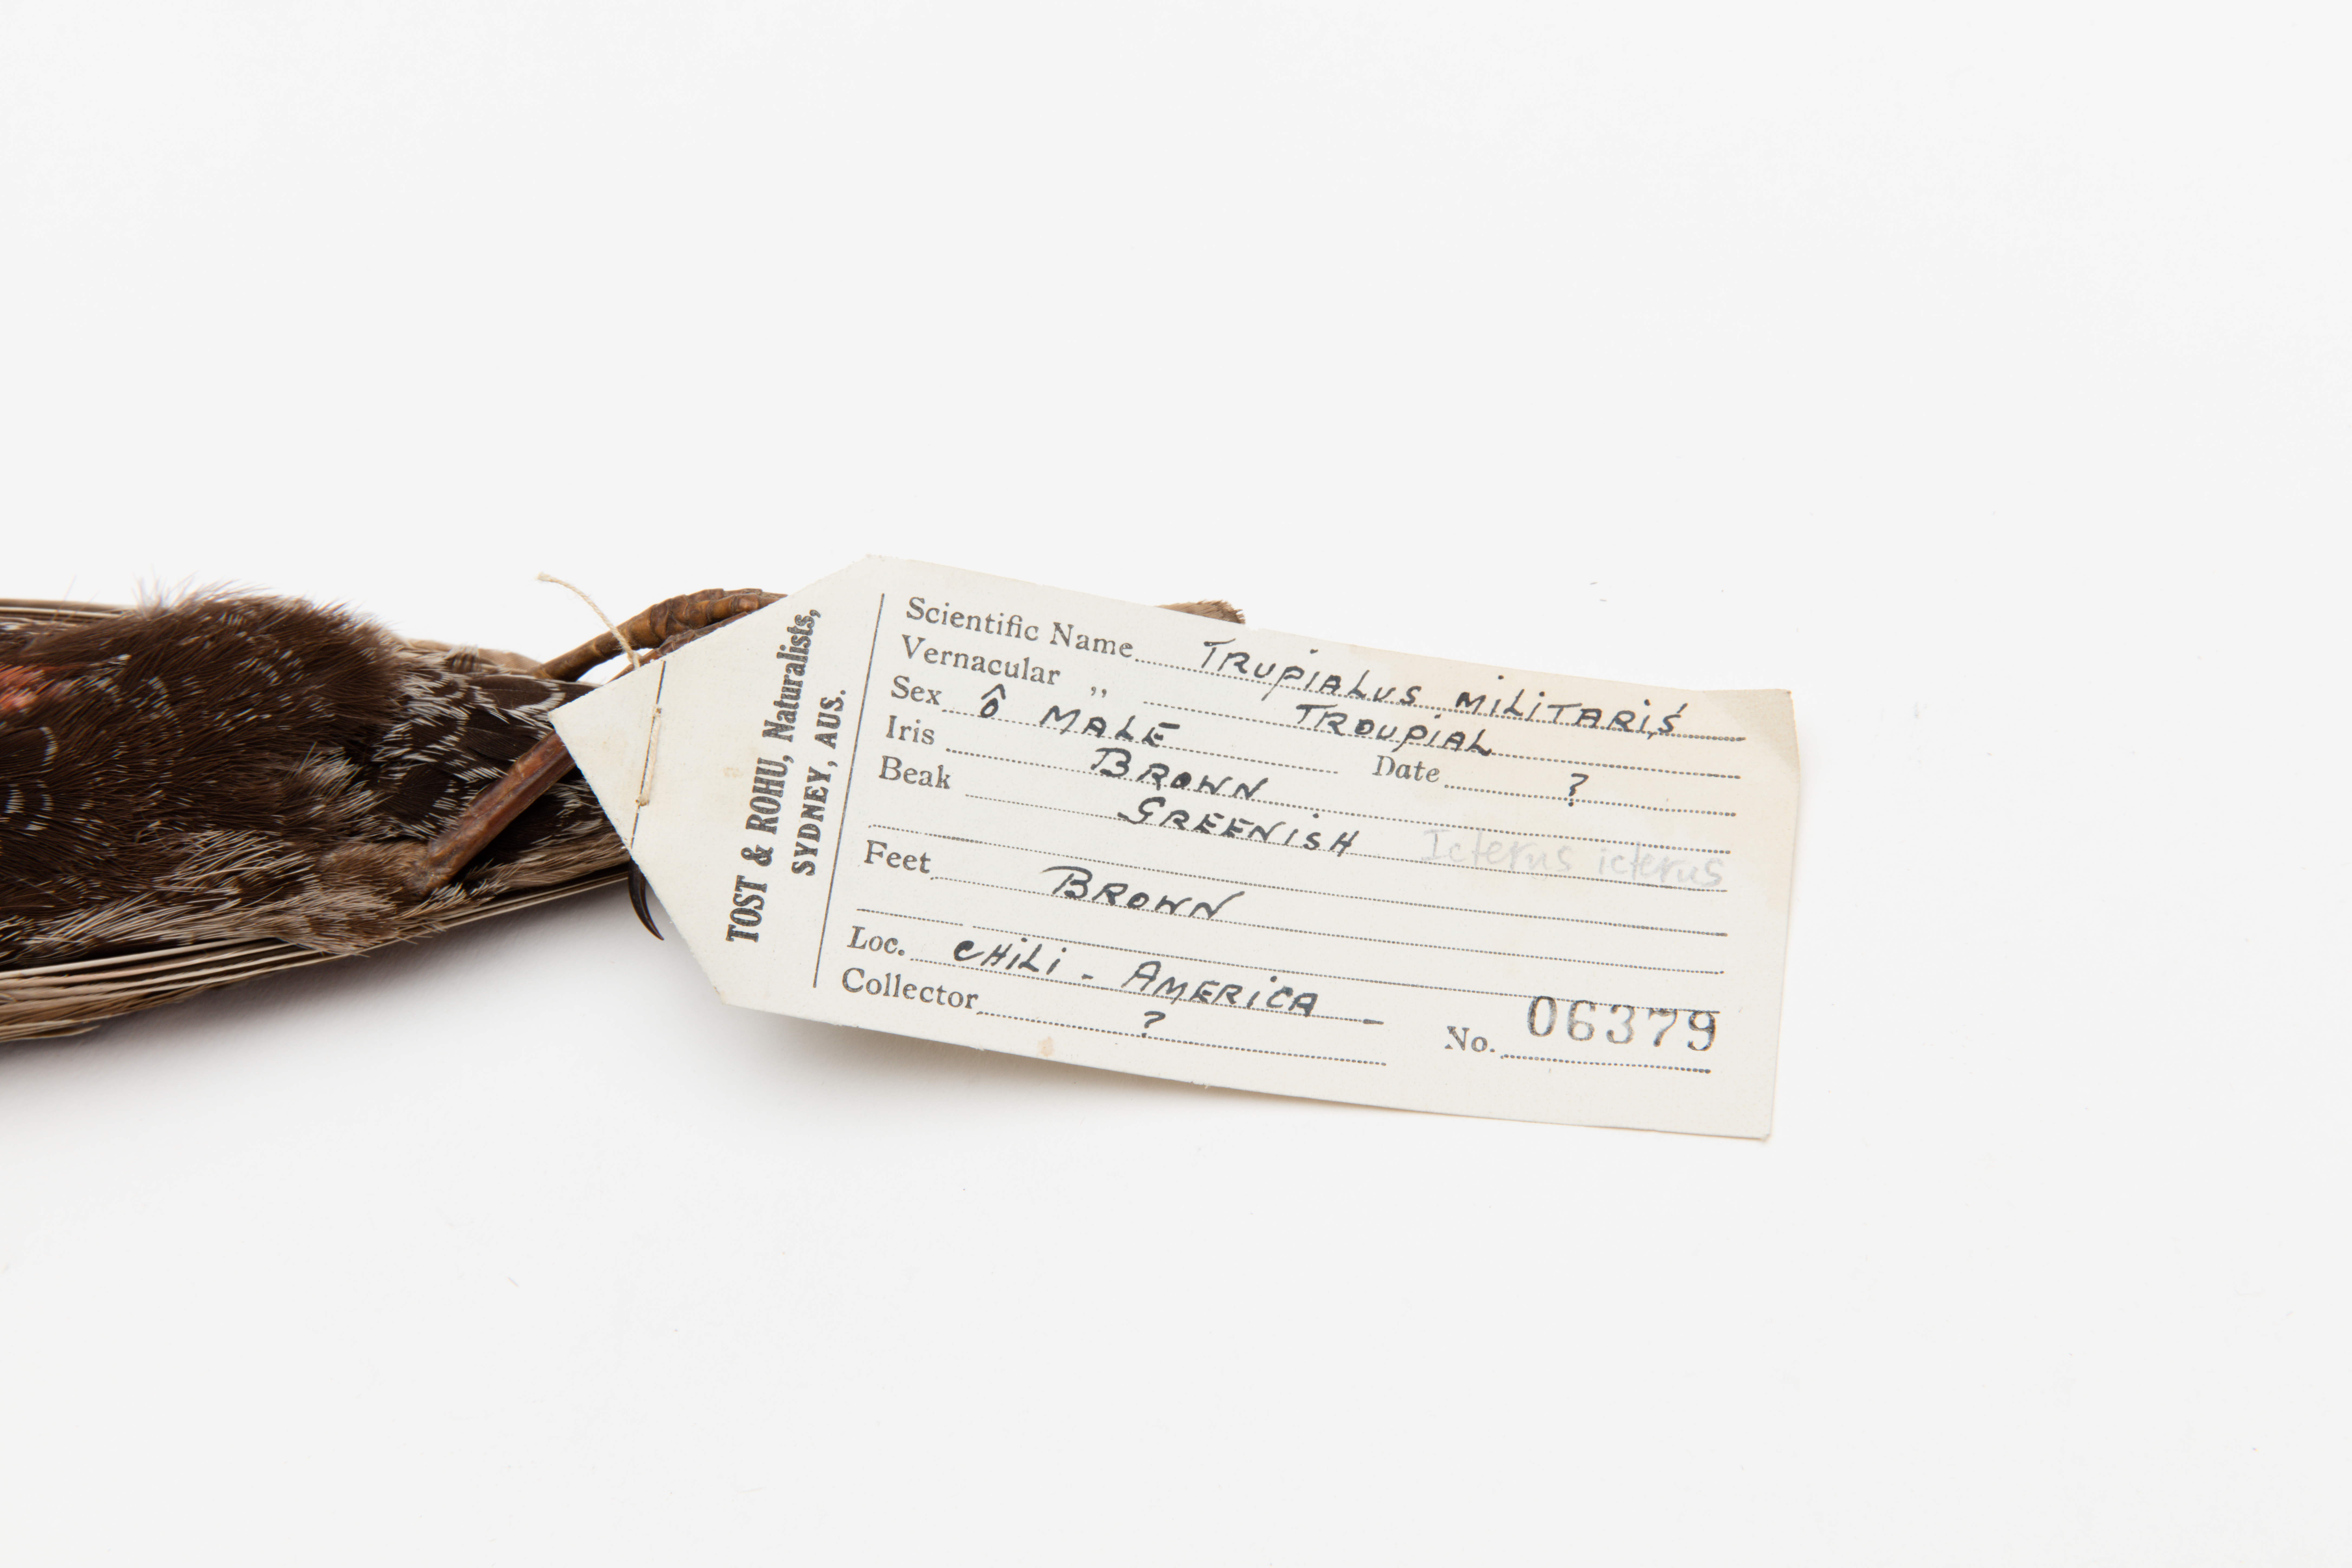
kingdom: Animalia
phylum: Chordata
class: Aves
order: Passeriformes
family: Icteridae
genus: Icterus
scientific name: Icterus icterus
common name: Venezuelan troupial
